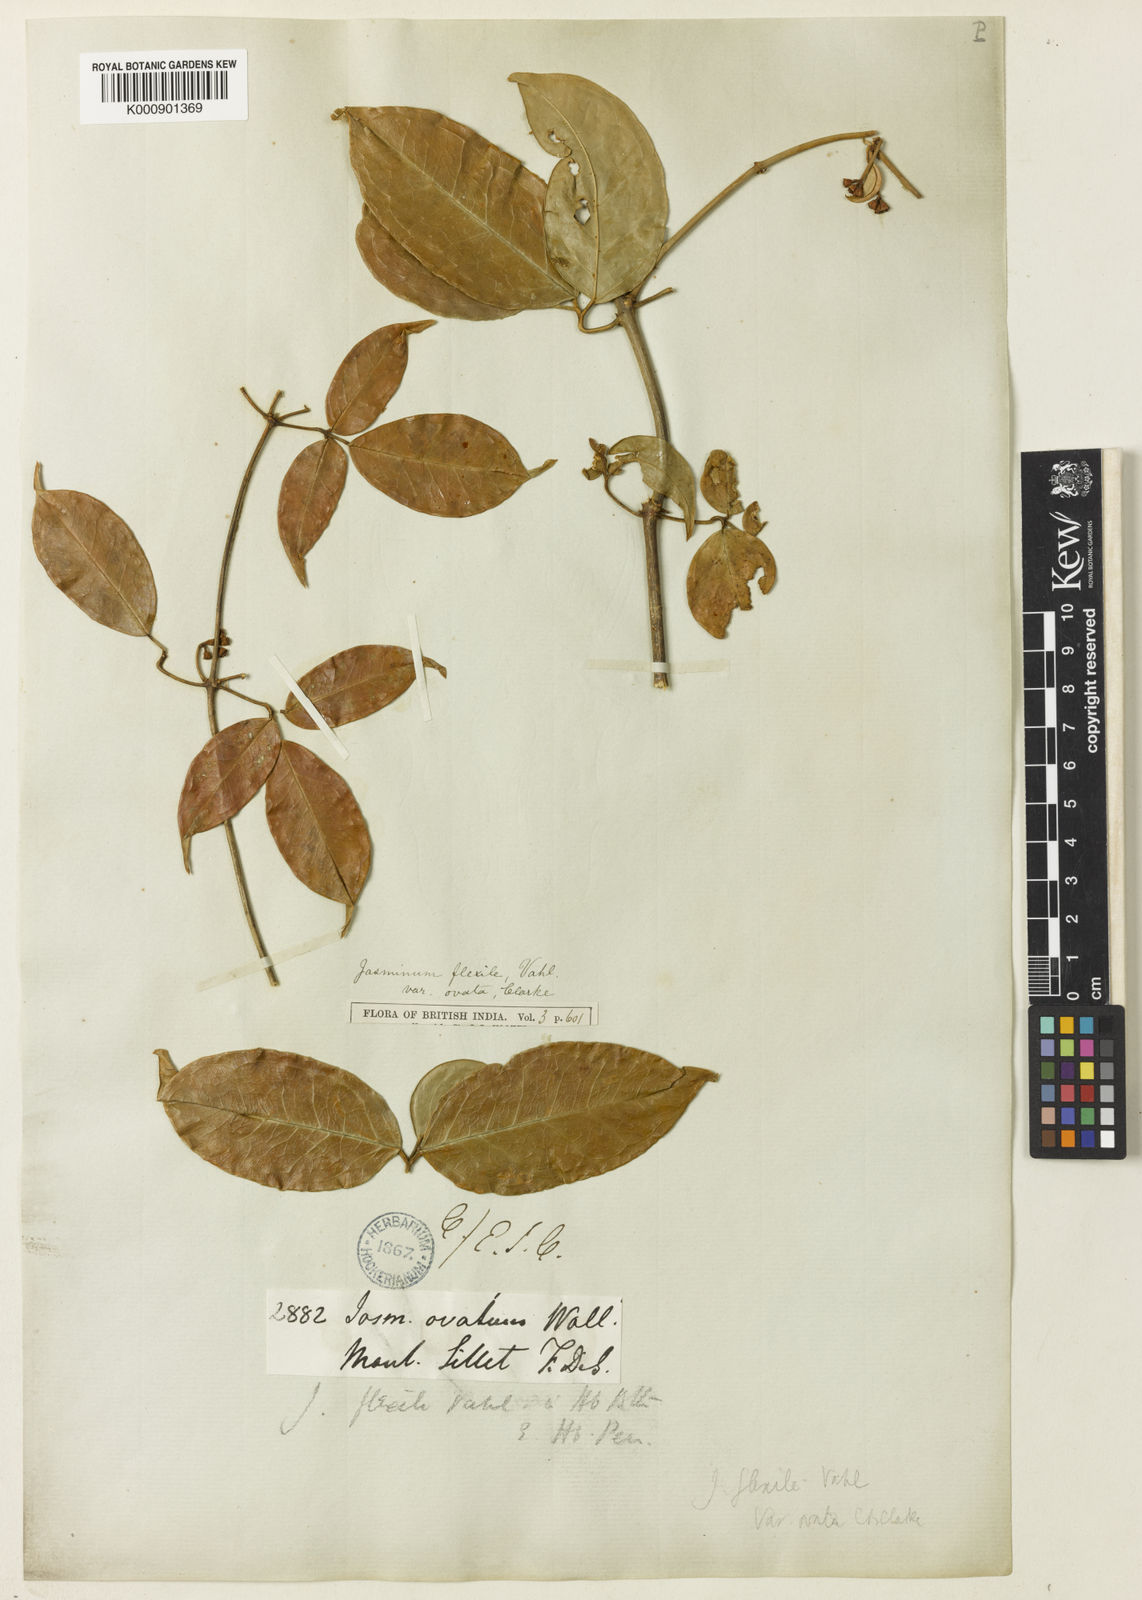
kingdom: Plantae
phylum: Tracheophyta
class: Magnoliopsida
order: Lamiales
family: Oleaceae
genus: Jasminum
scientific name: Jasminum flexile
